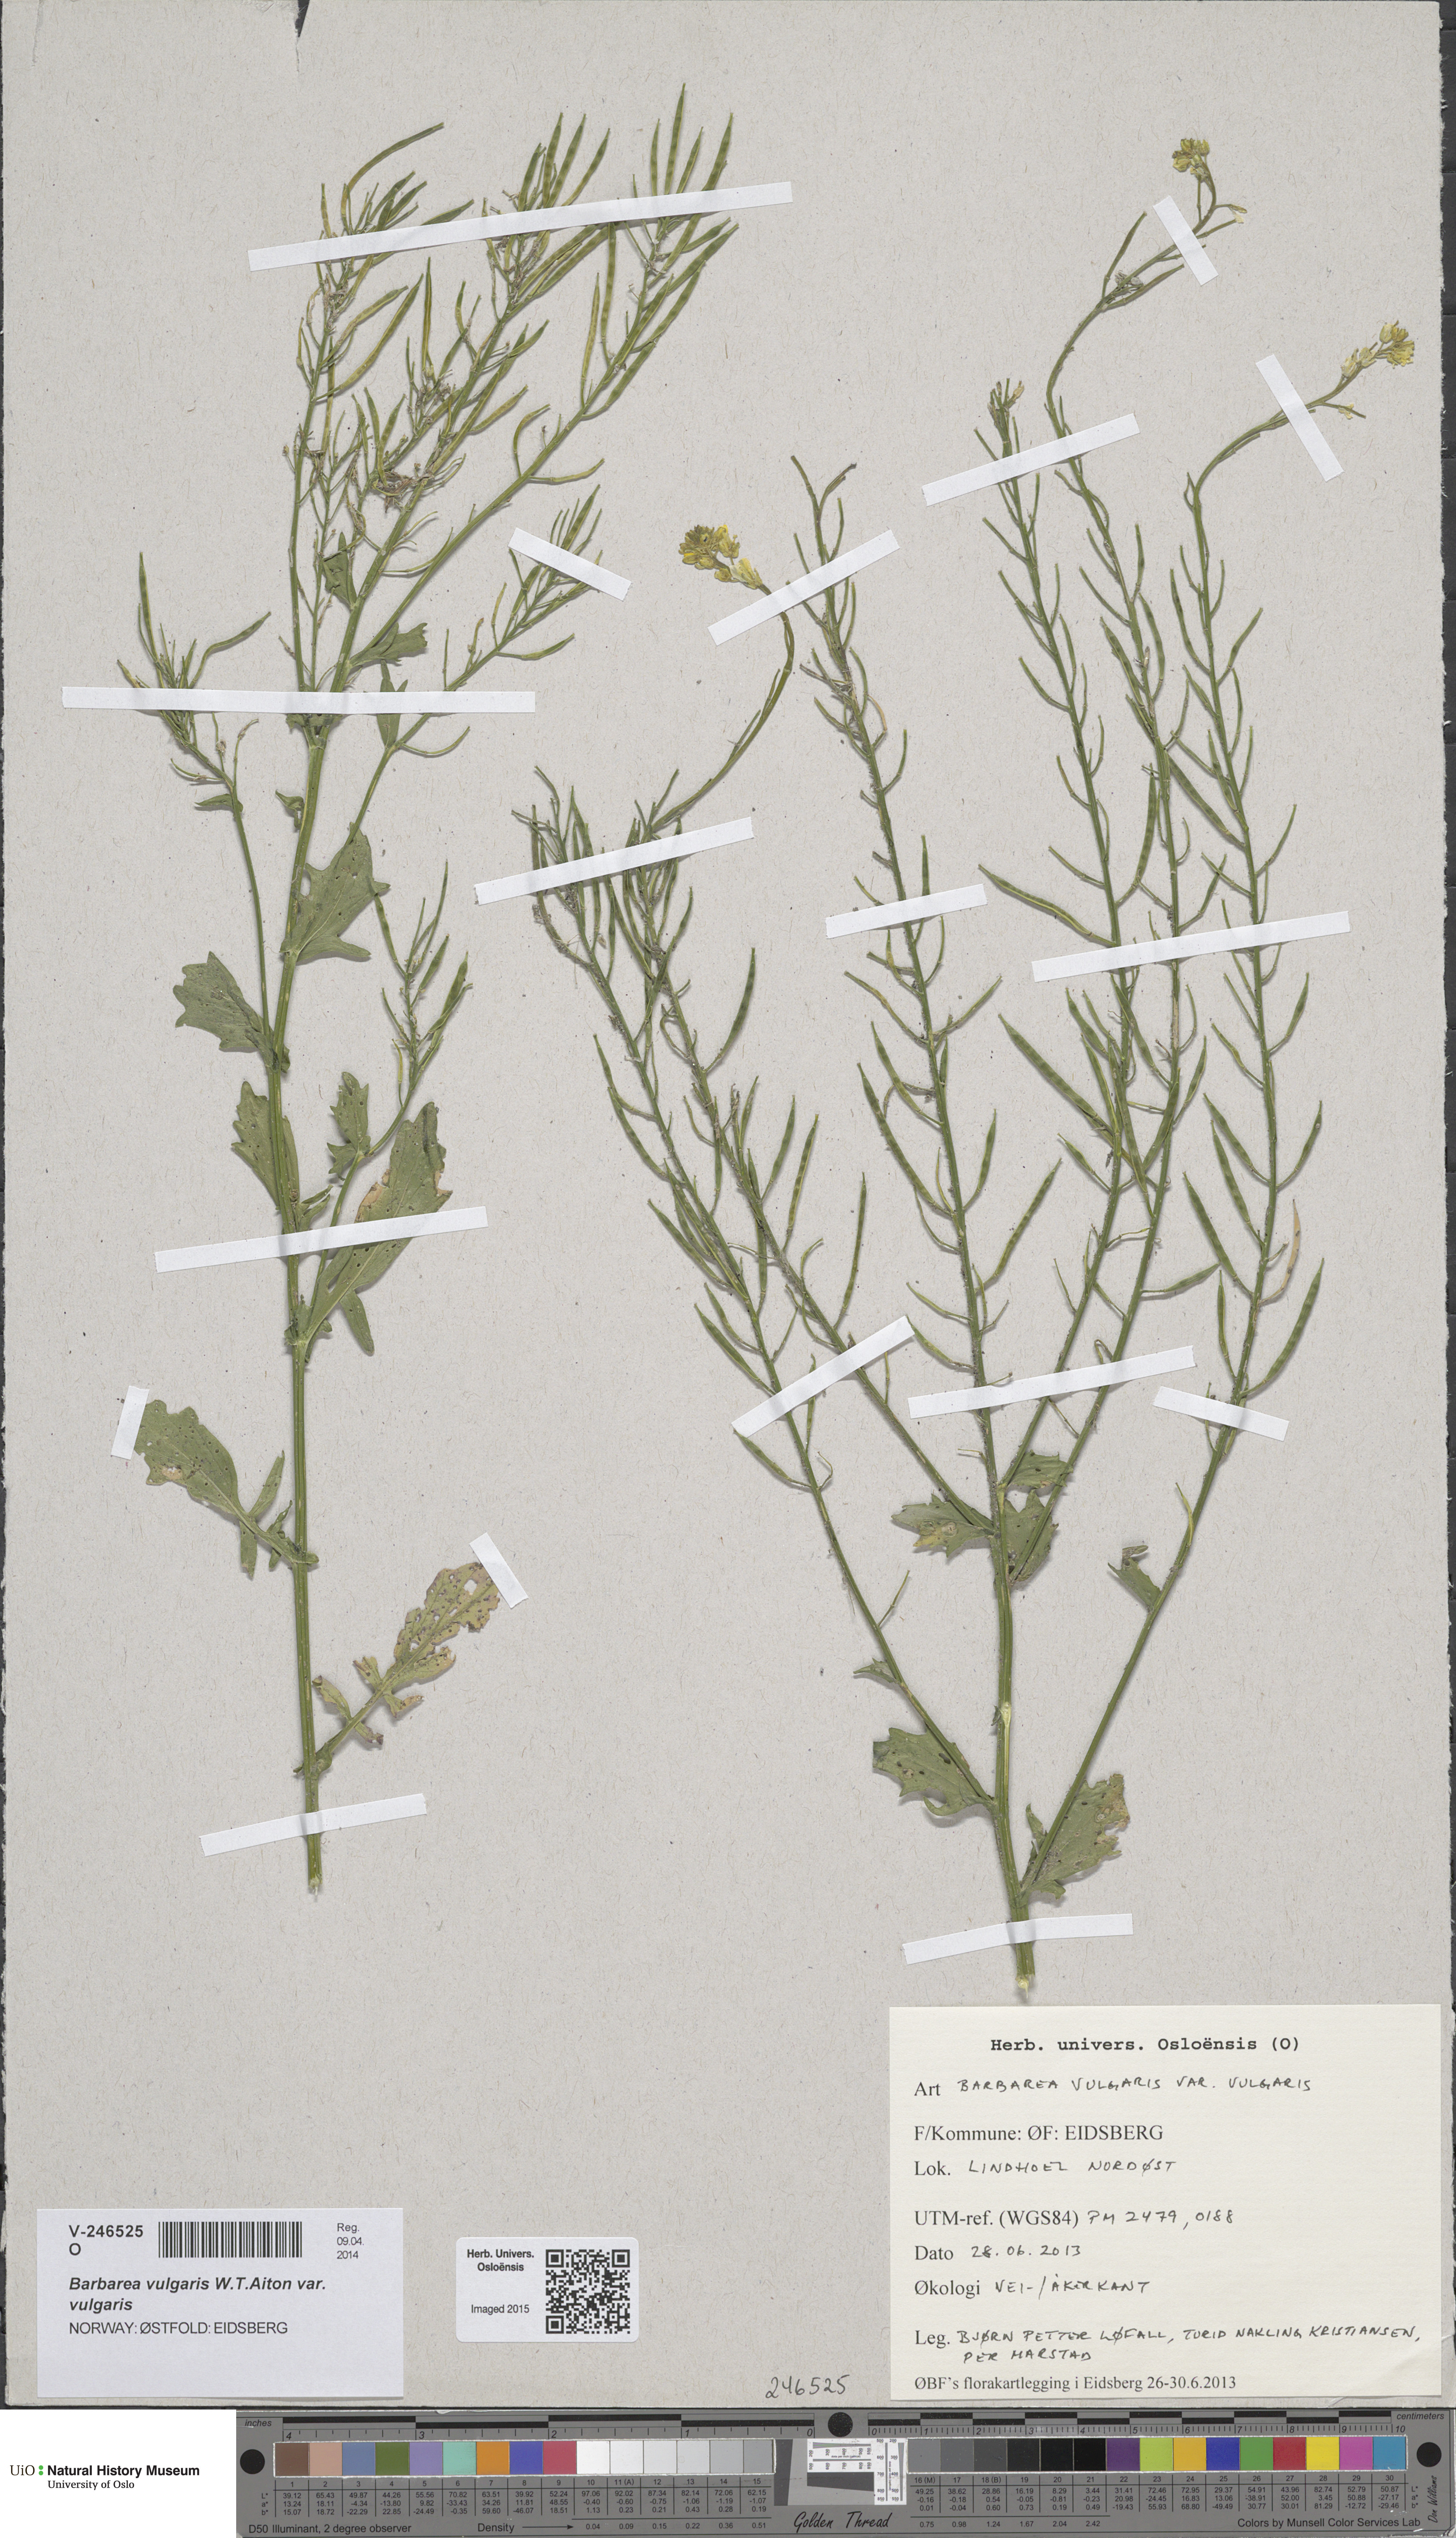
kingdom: Plantae
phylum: Tracheophyta
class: Magnoliopsida
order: Brassicales
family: Brassicaceae
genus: Barbarea
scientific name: Barbarea vulgaris
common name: Cressy-greens
